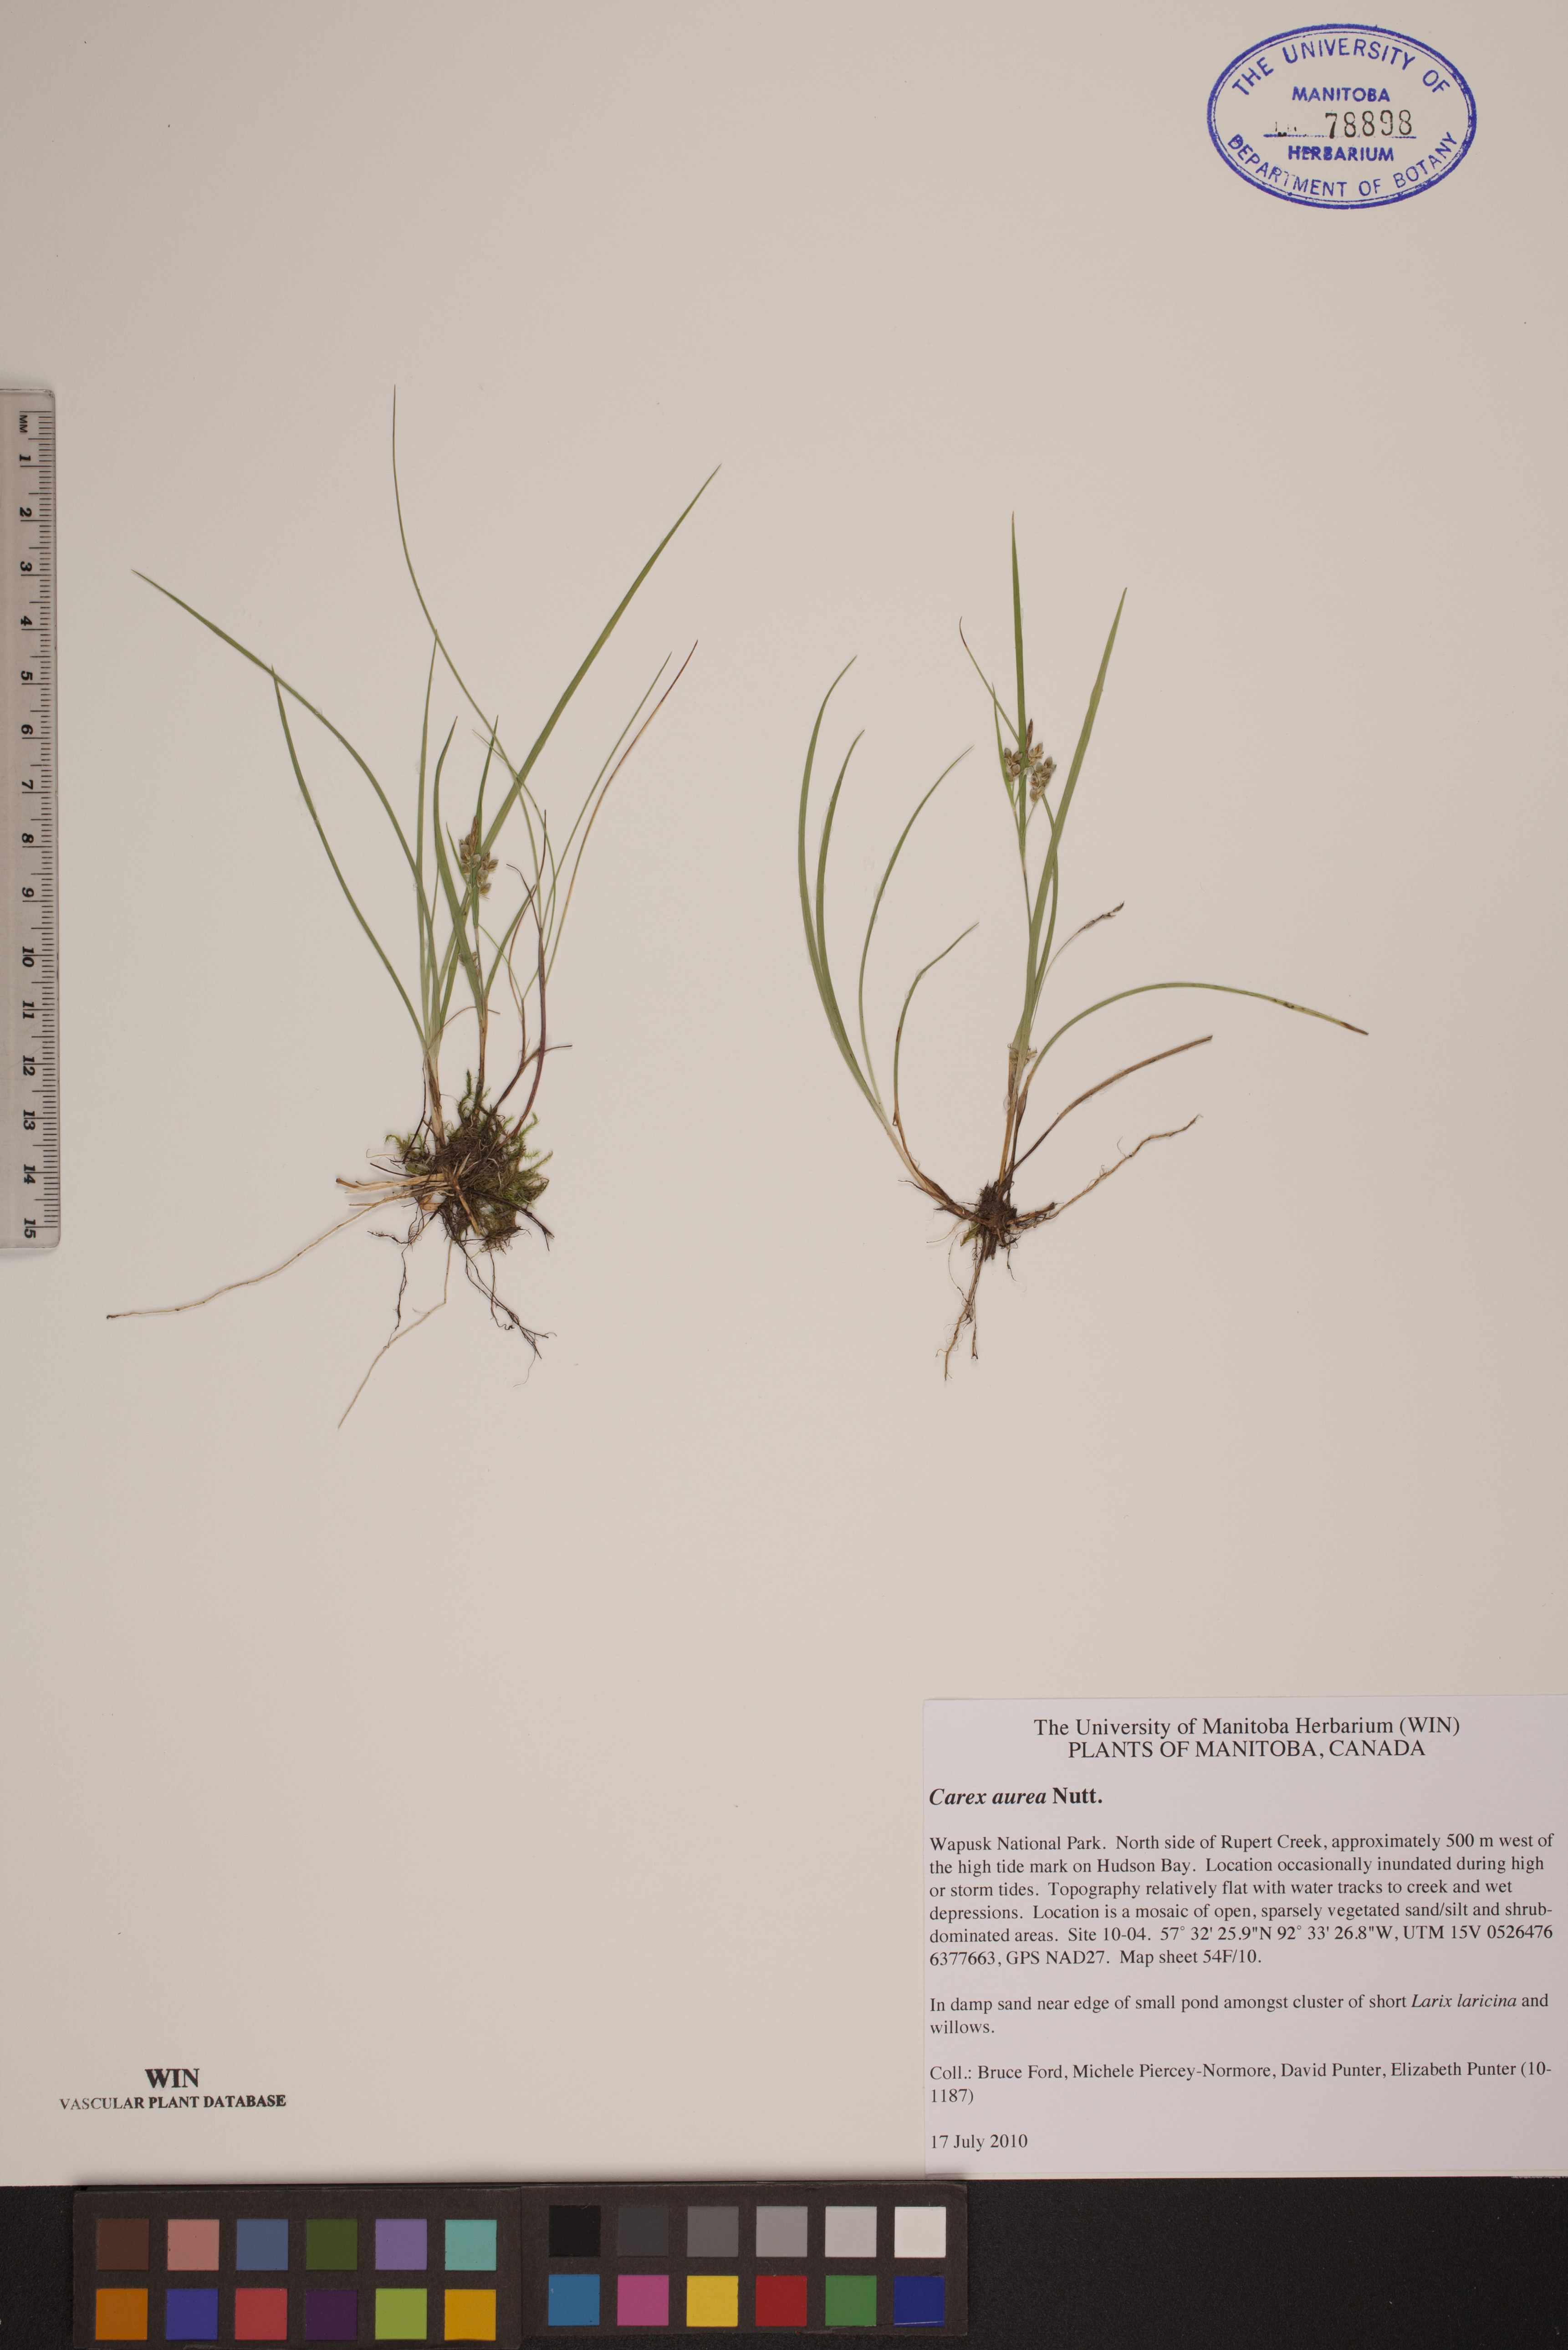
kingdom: Plantae
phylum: Tracheophyta
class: Liliopsida
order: Poales
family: Cyperaceae
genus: Carex
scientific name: Carex aurea
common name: Golden sedge
